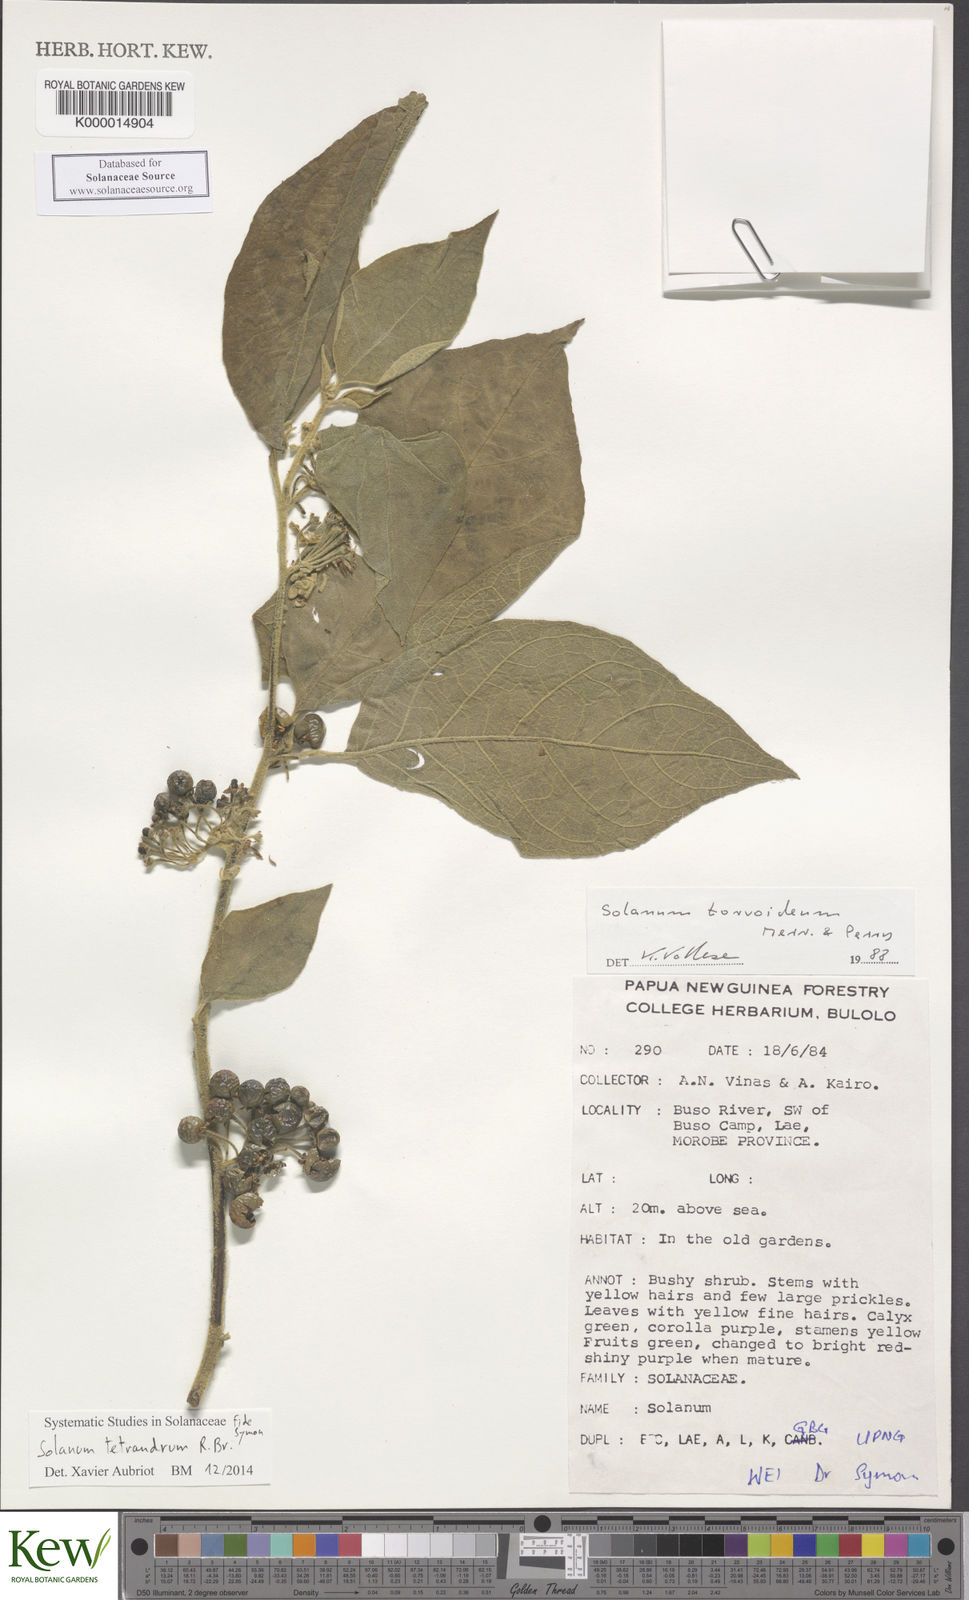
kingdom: Plantae
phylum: Tracheophyta
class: Magnoliopsida
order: Solanales
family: Solanaceae
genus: Solanum
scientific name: Solanum tetrandrum
